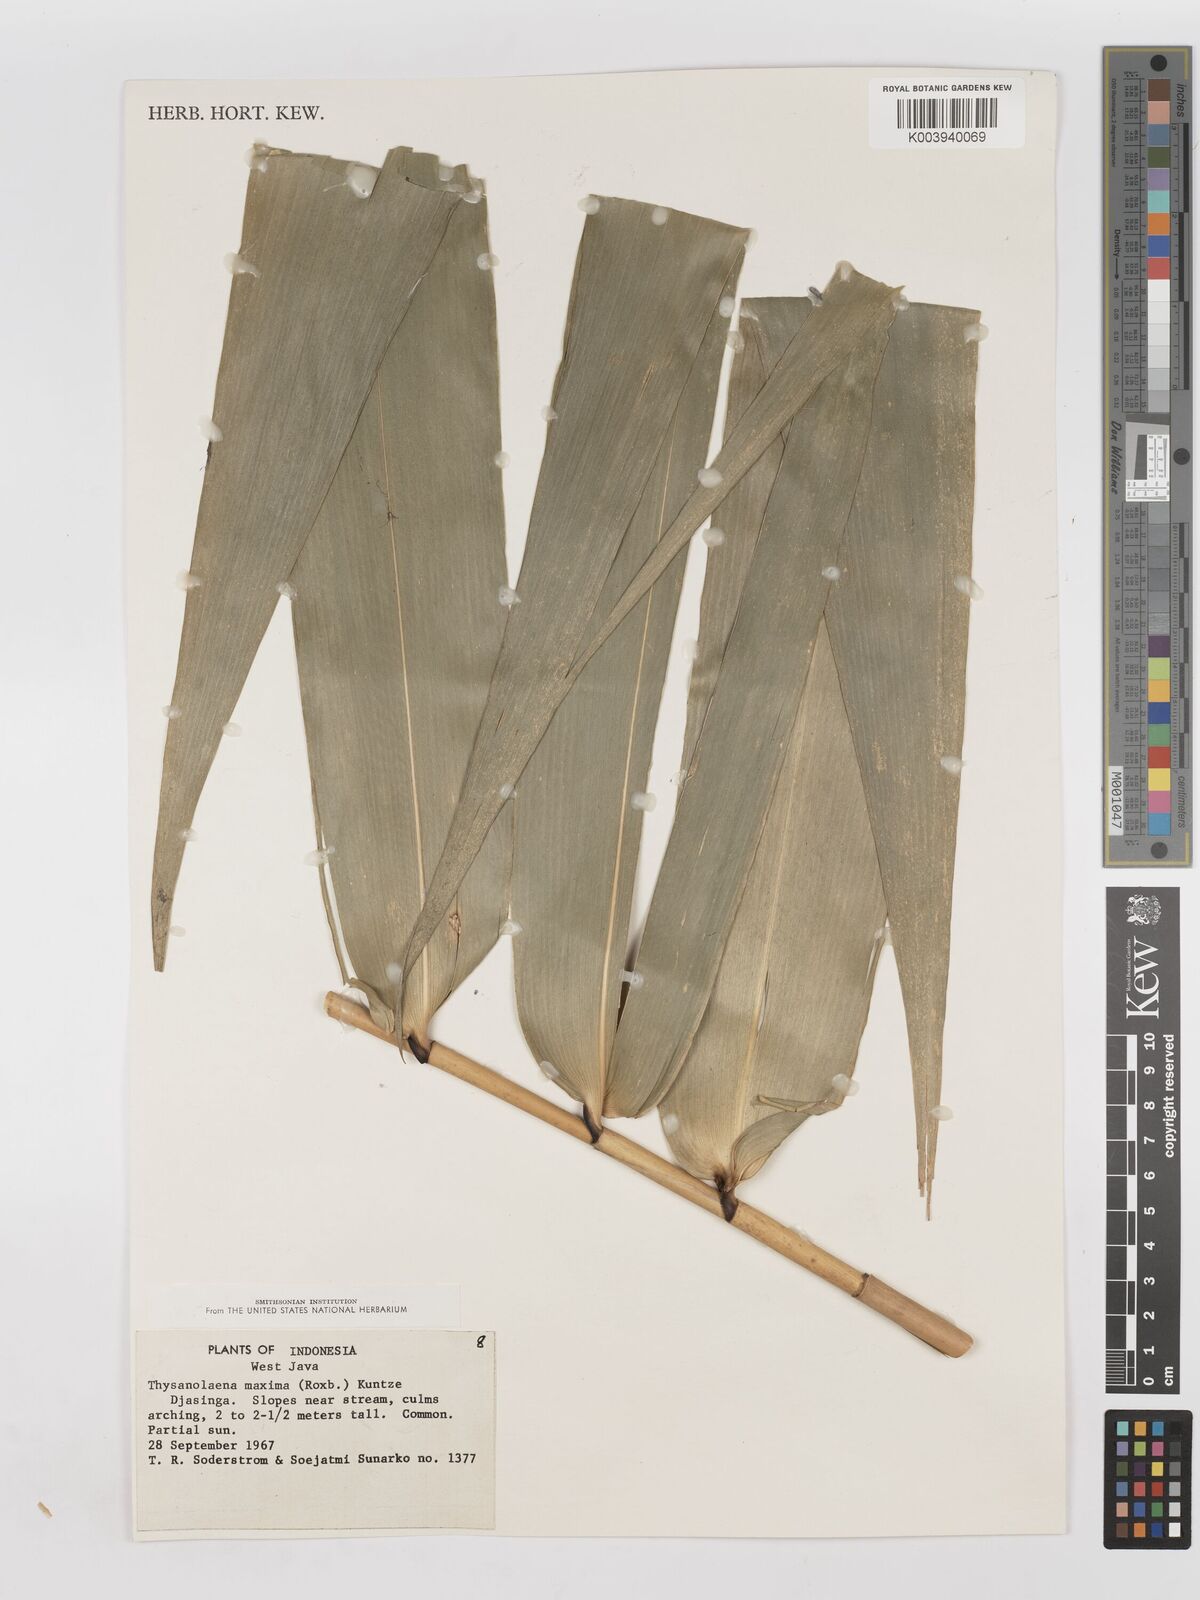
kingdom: Plantae
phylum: Tracheophyta
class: Liliopsida
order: Poales
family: Poaceae
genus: Thysanolaena
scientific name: Thysanolaena latifolia
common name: Tiger grass
